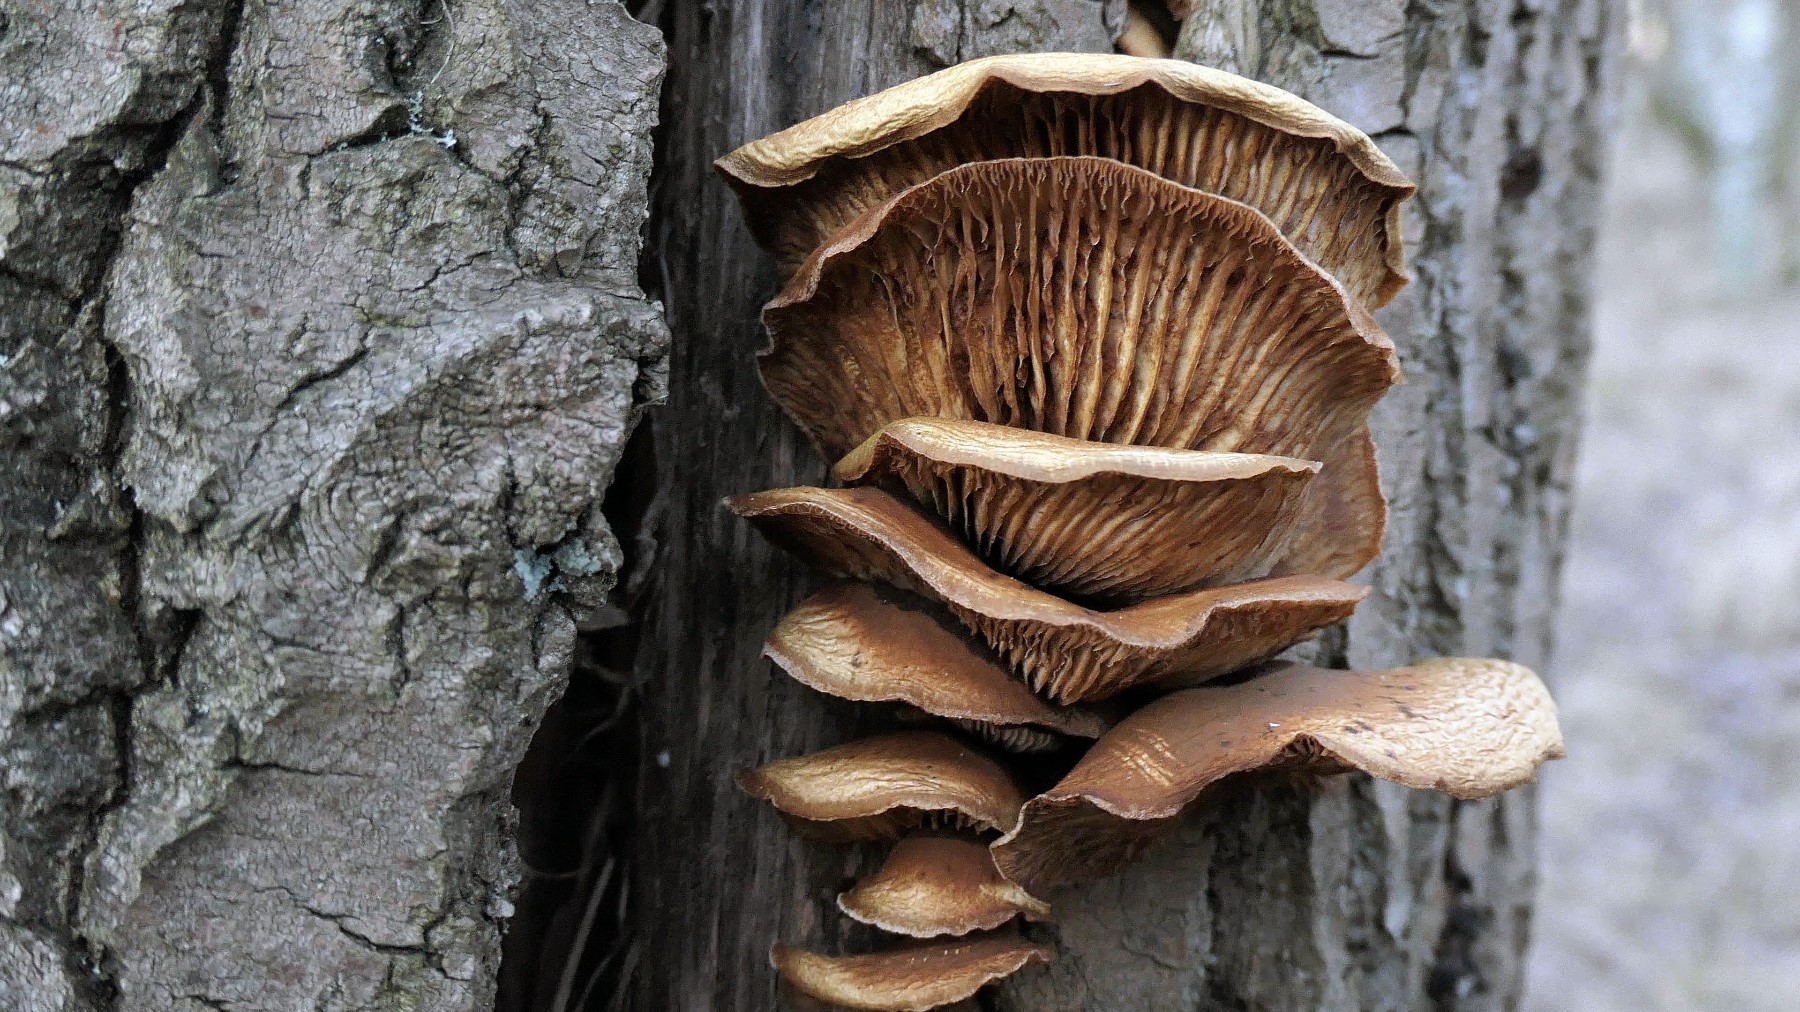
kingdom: Fungi
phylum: Basidiomycota
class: Agaricomycetes
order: Agaricales
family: Crepidotaceae
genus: Crepidotus
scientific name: Crepidotus mollis
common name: blød muslingesvamp
